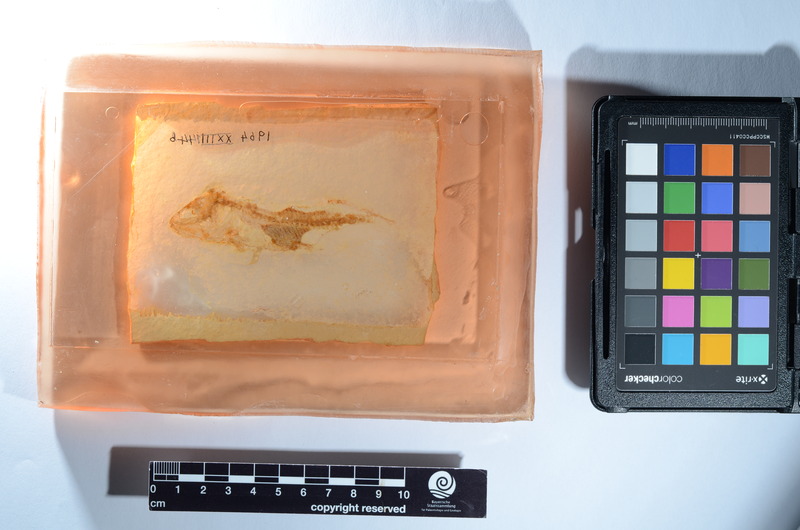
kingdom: Animalia
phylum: Chordata
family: Ankylophoridae
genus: Pholidophoristion
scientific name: Pholidophoristion micronyx
